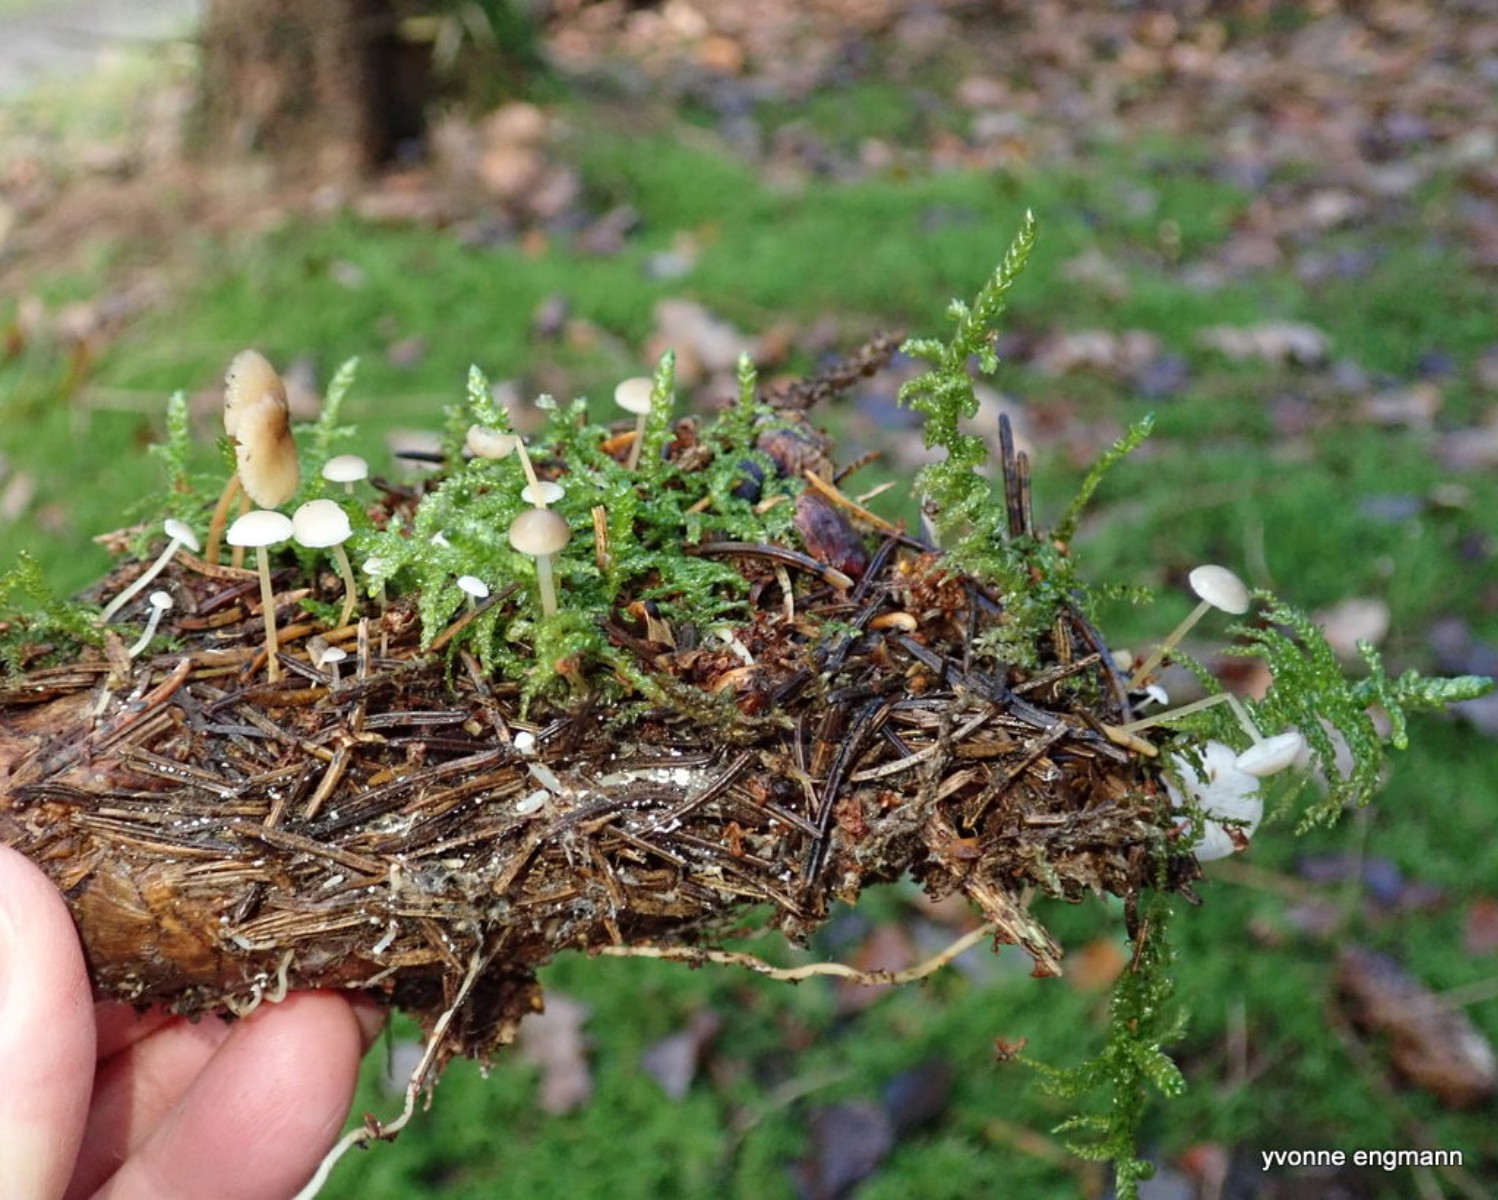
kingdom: Fungi
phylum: Basidiomycota
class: Agaricomycetes
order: Agaricales
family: Physalacriaceae
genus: Strobilurus
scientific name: Strobilurus esculentus
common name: gran-koglehat
